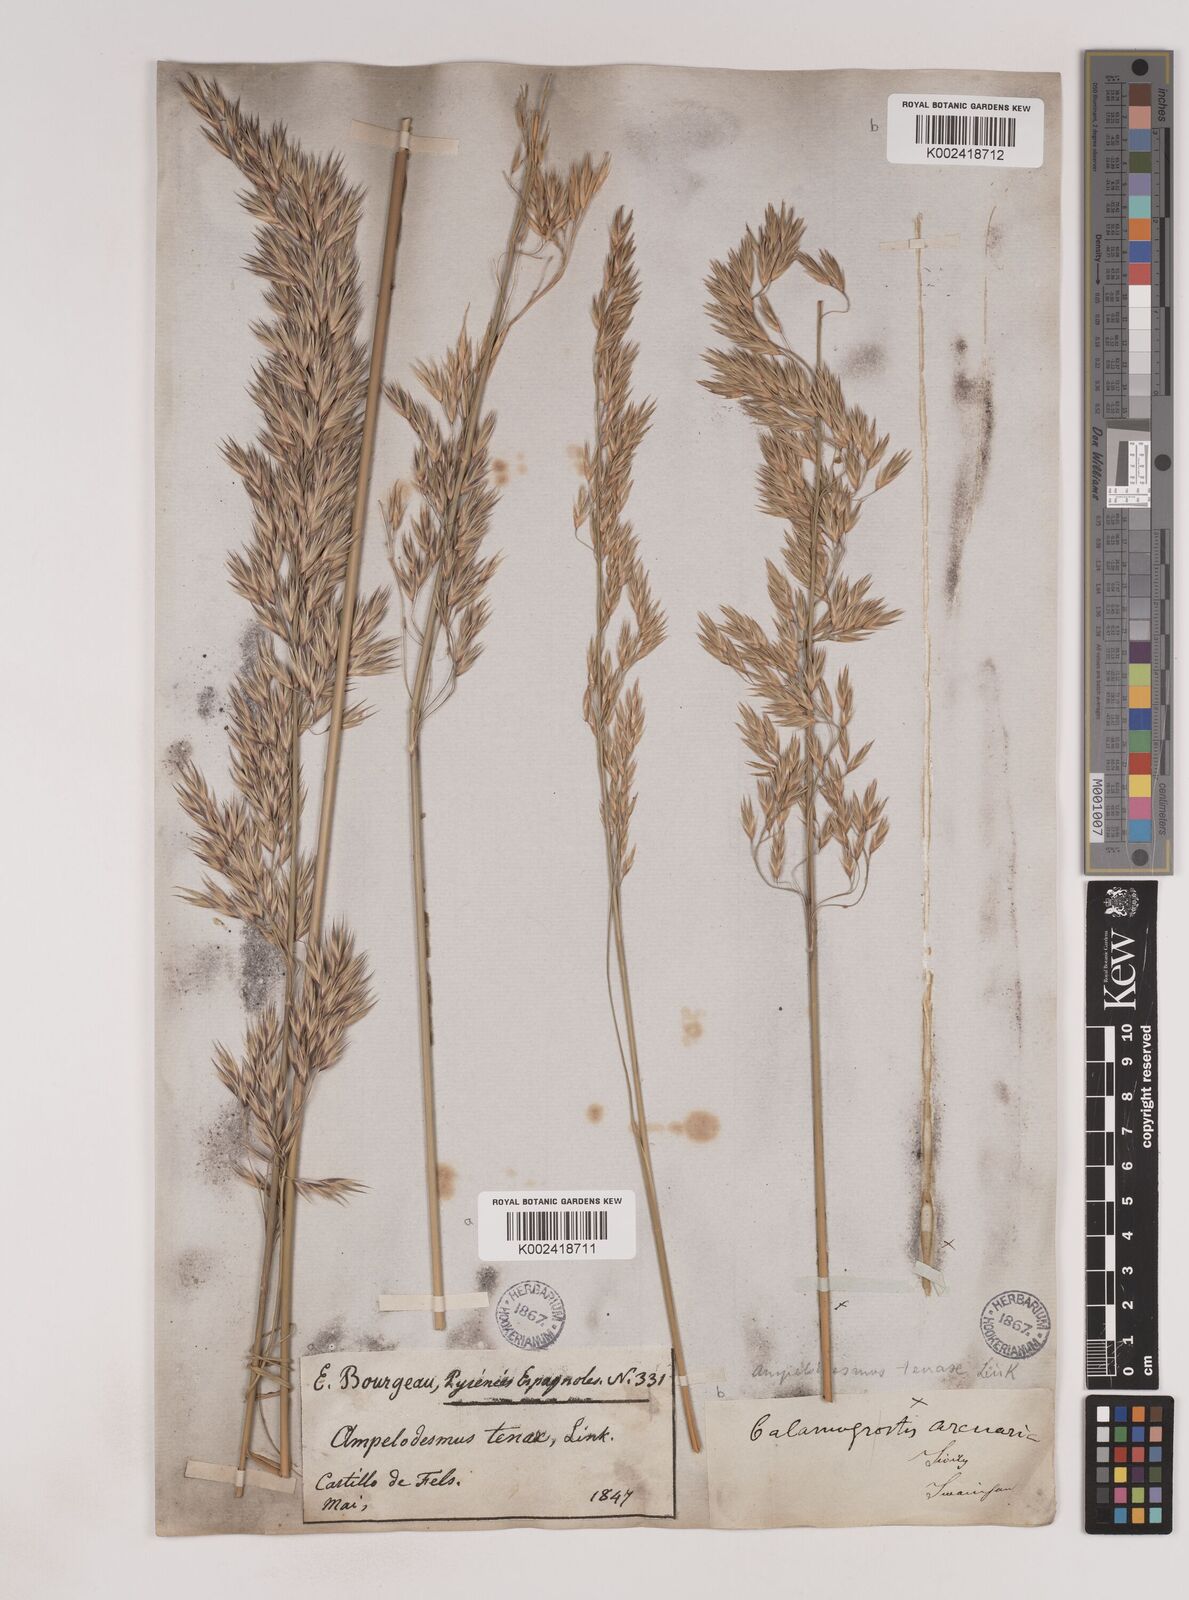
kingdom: Plantae
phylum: Tracheophyta
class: Liliopsida
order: Poales
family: Poaceae
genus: Ampelodesmos
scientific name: Ampelodesmos mauritanicus
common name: Mauritanian grass
